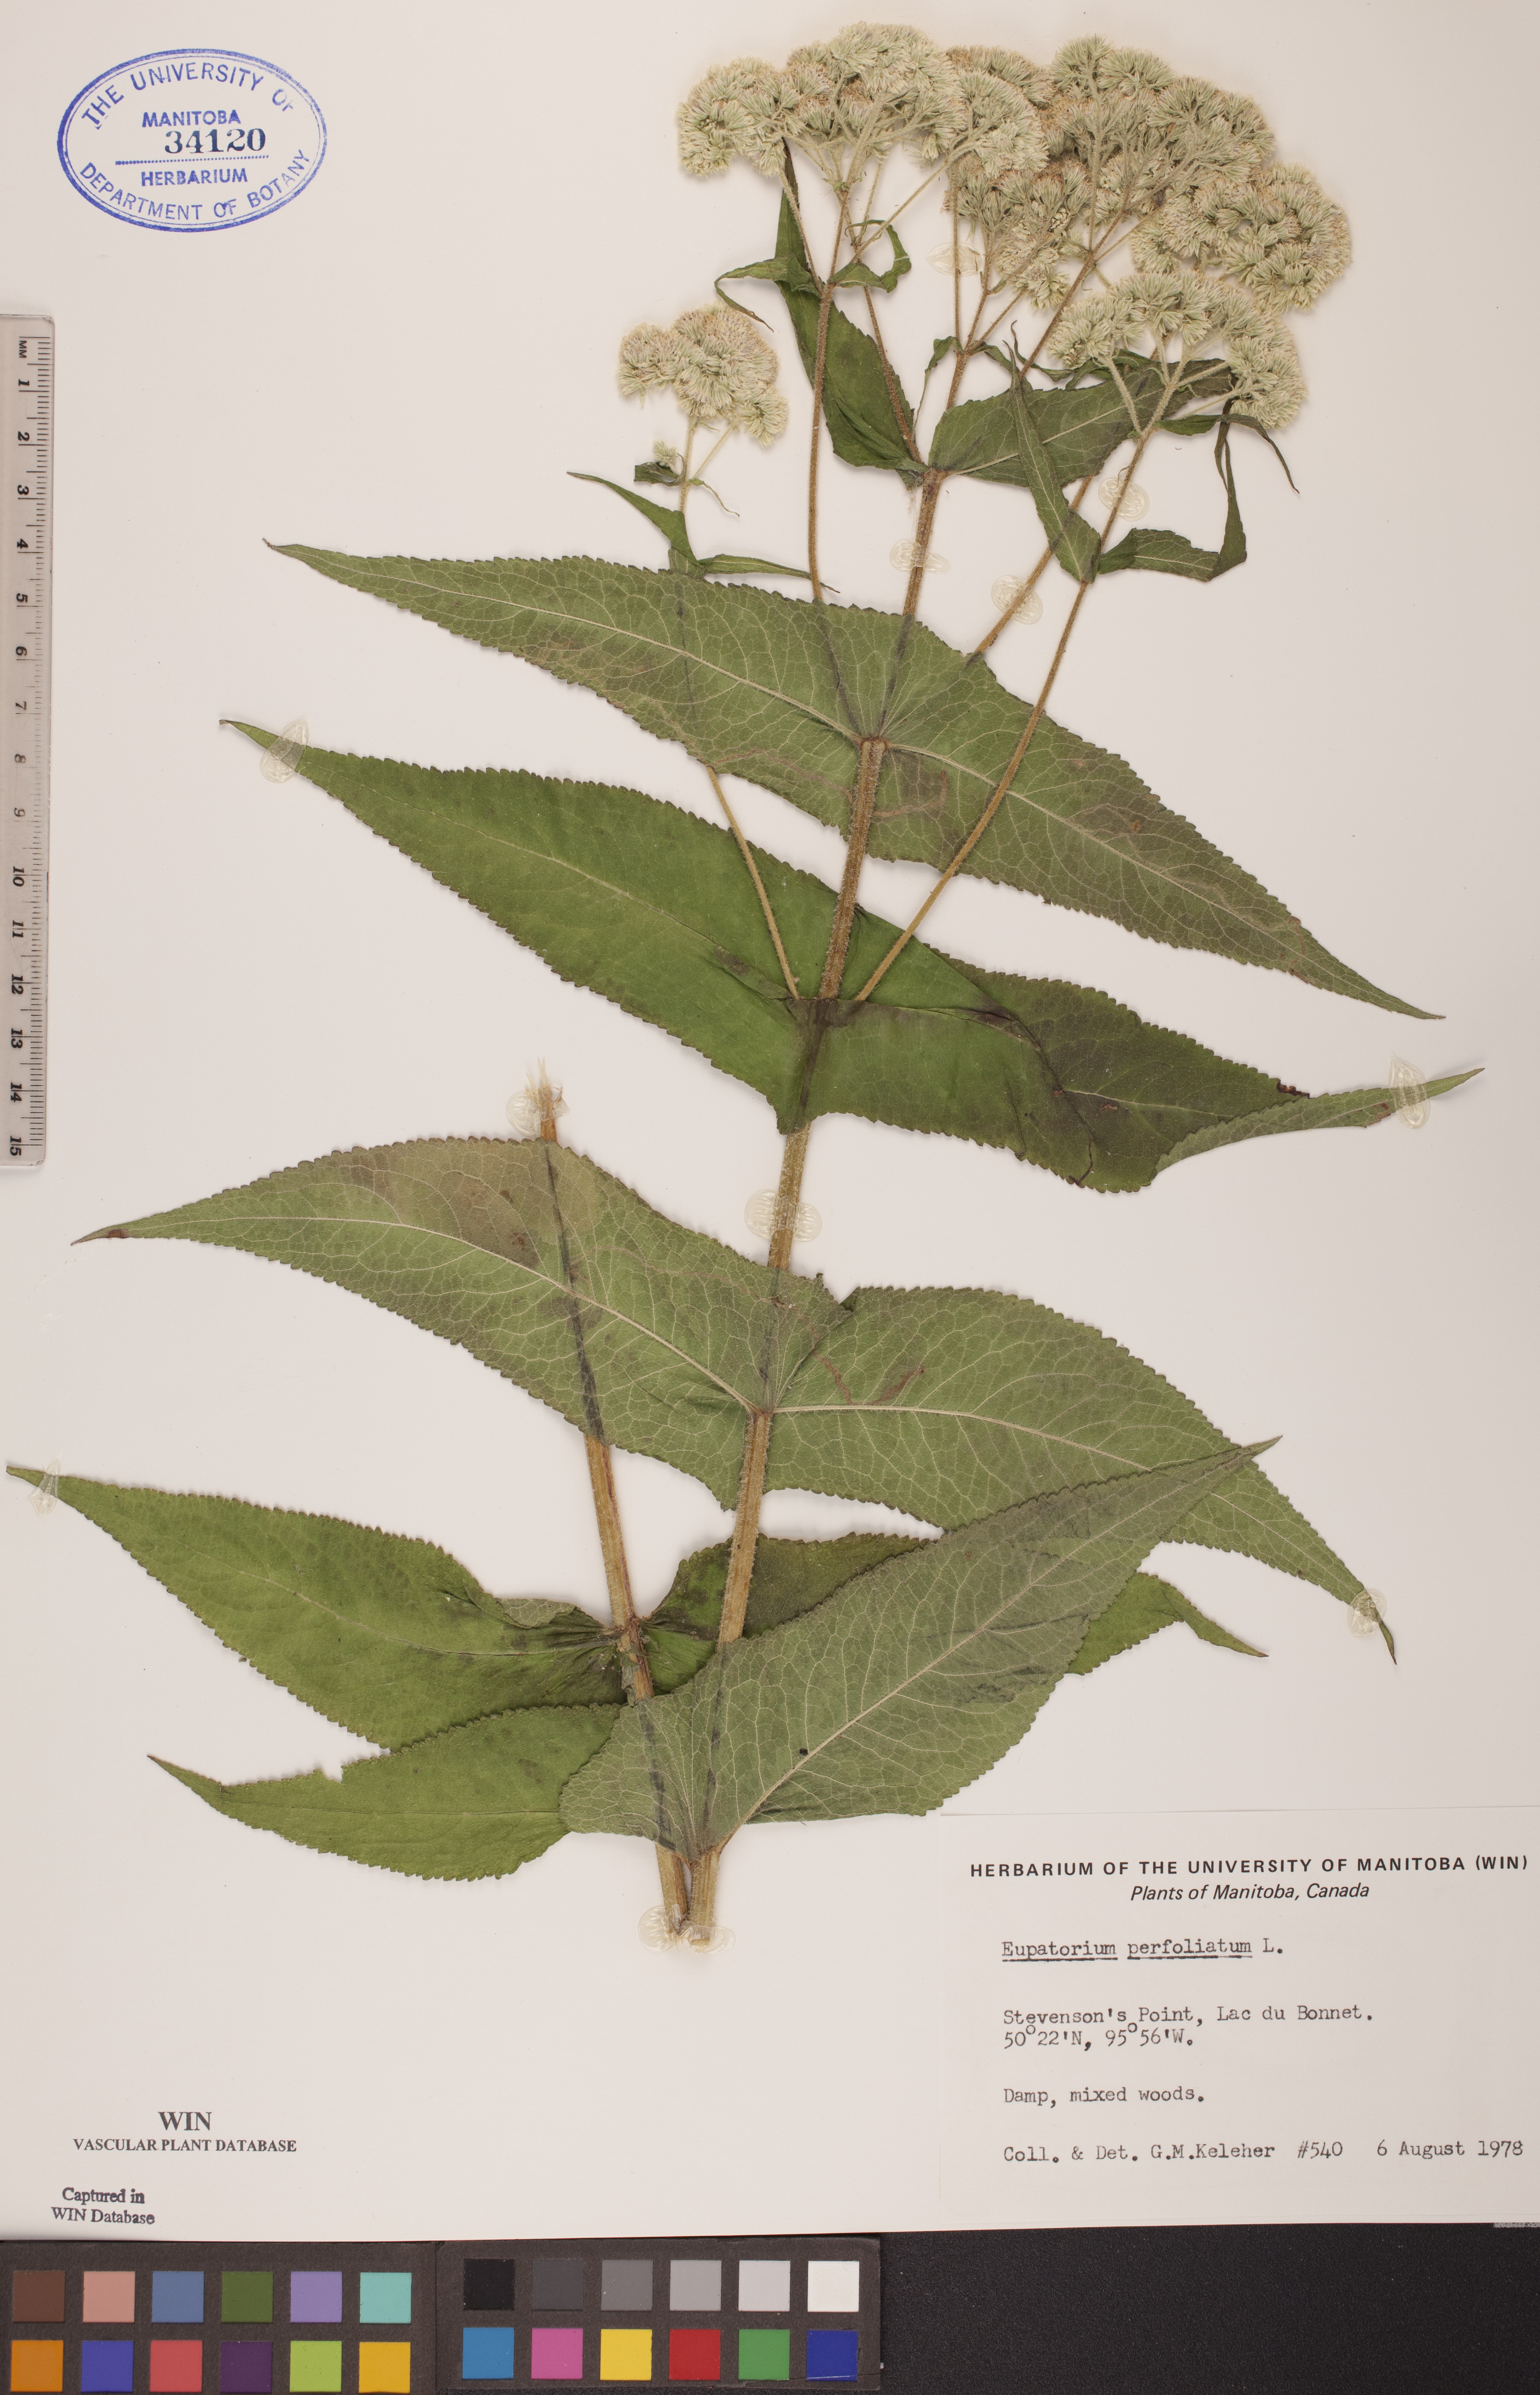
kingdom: Plantae
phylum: Tracheophyta
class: Magnoliopsida
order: Asterales
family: Asteraceae
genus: Eupatorium
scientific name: Eupatorium perfoliatum
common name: Boneset
